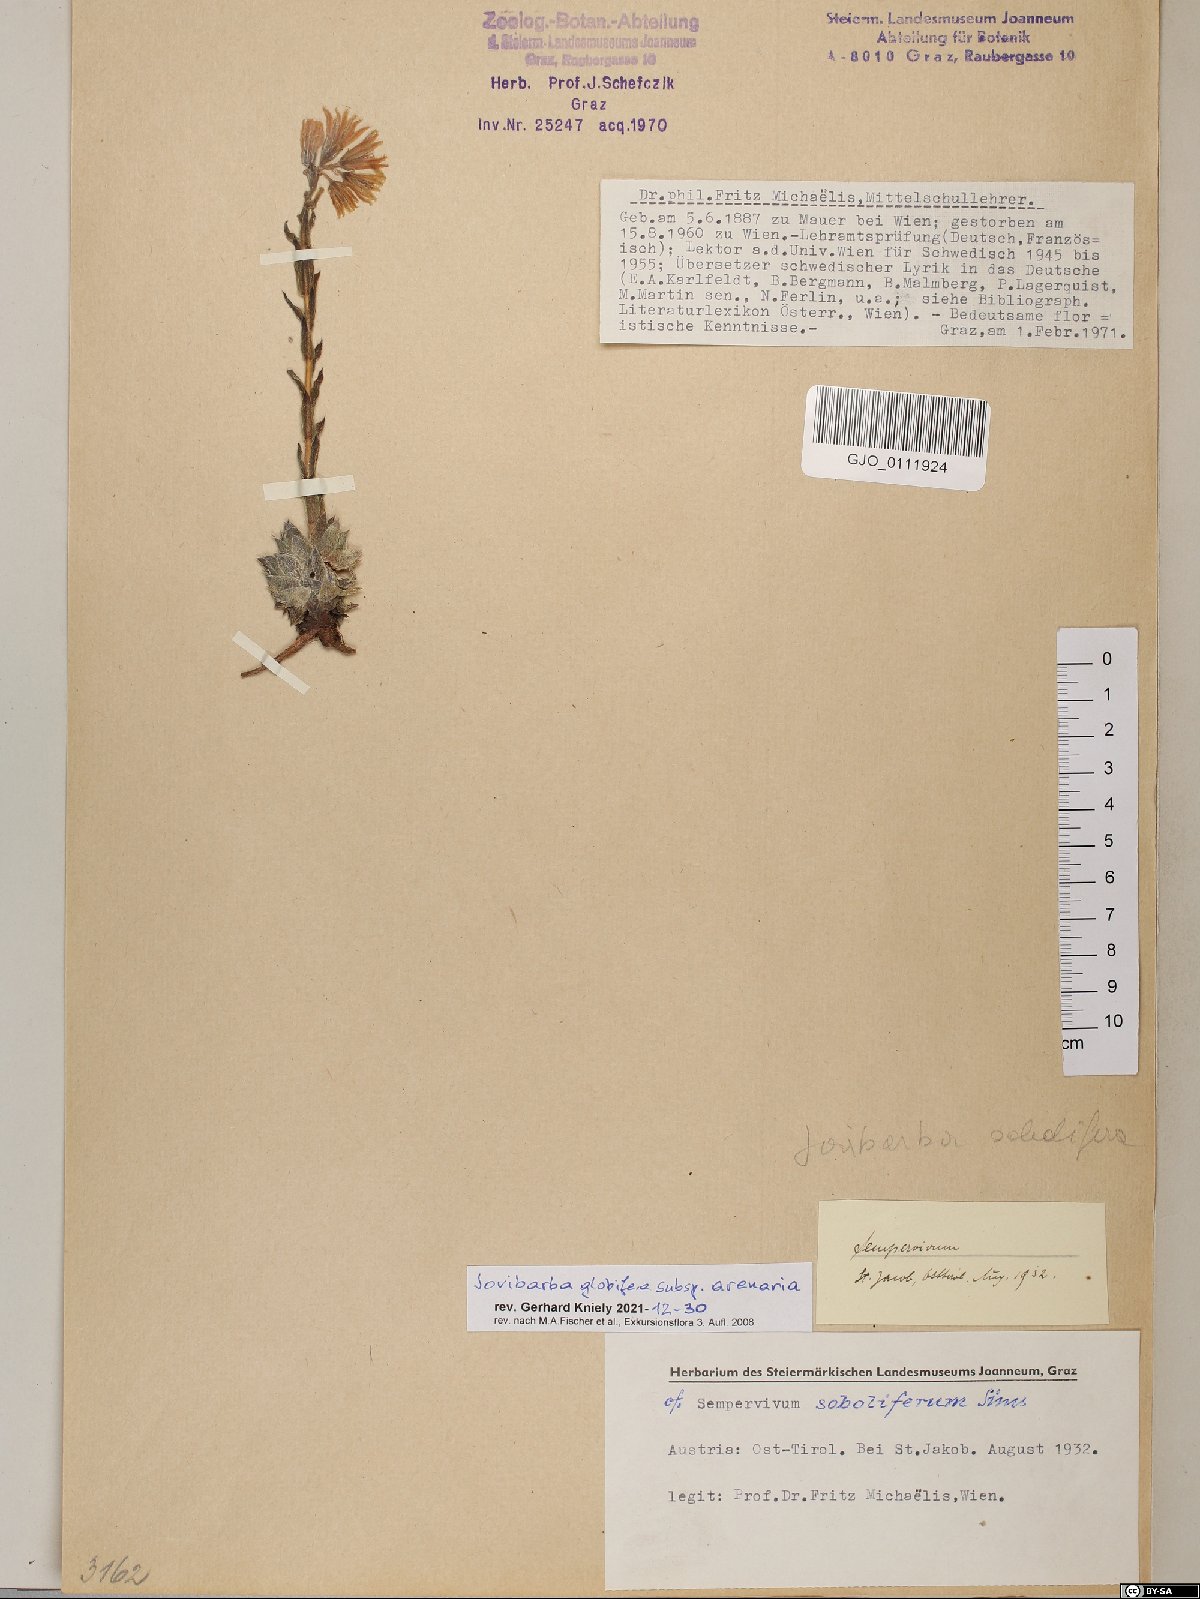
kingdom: Plantae
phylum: Tracheophyta
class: Magnoliopsida
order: Saxifragales
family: Crassulaceae
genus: Sempervivum
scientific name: Sempervivum globiferum
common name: Rolling hen-and-chicks
